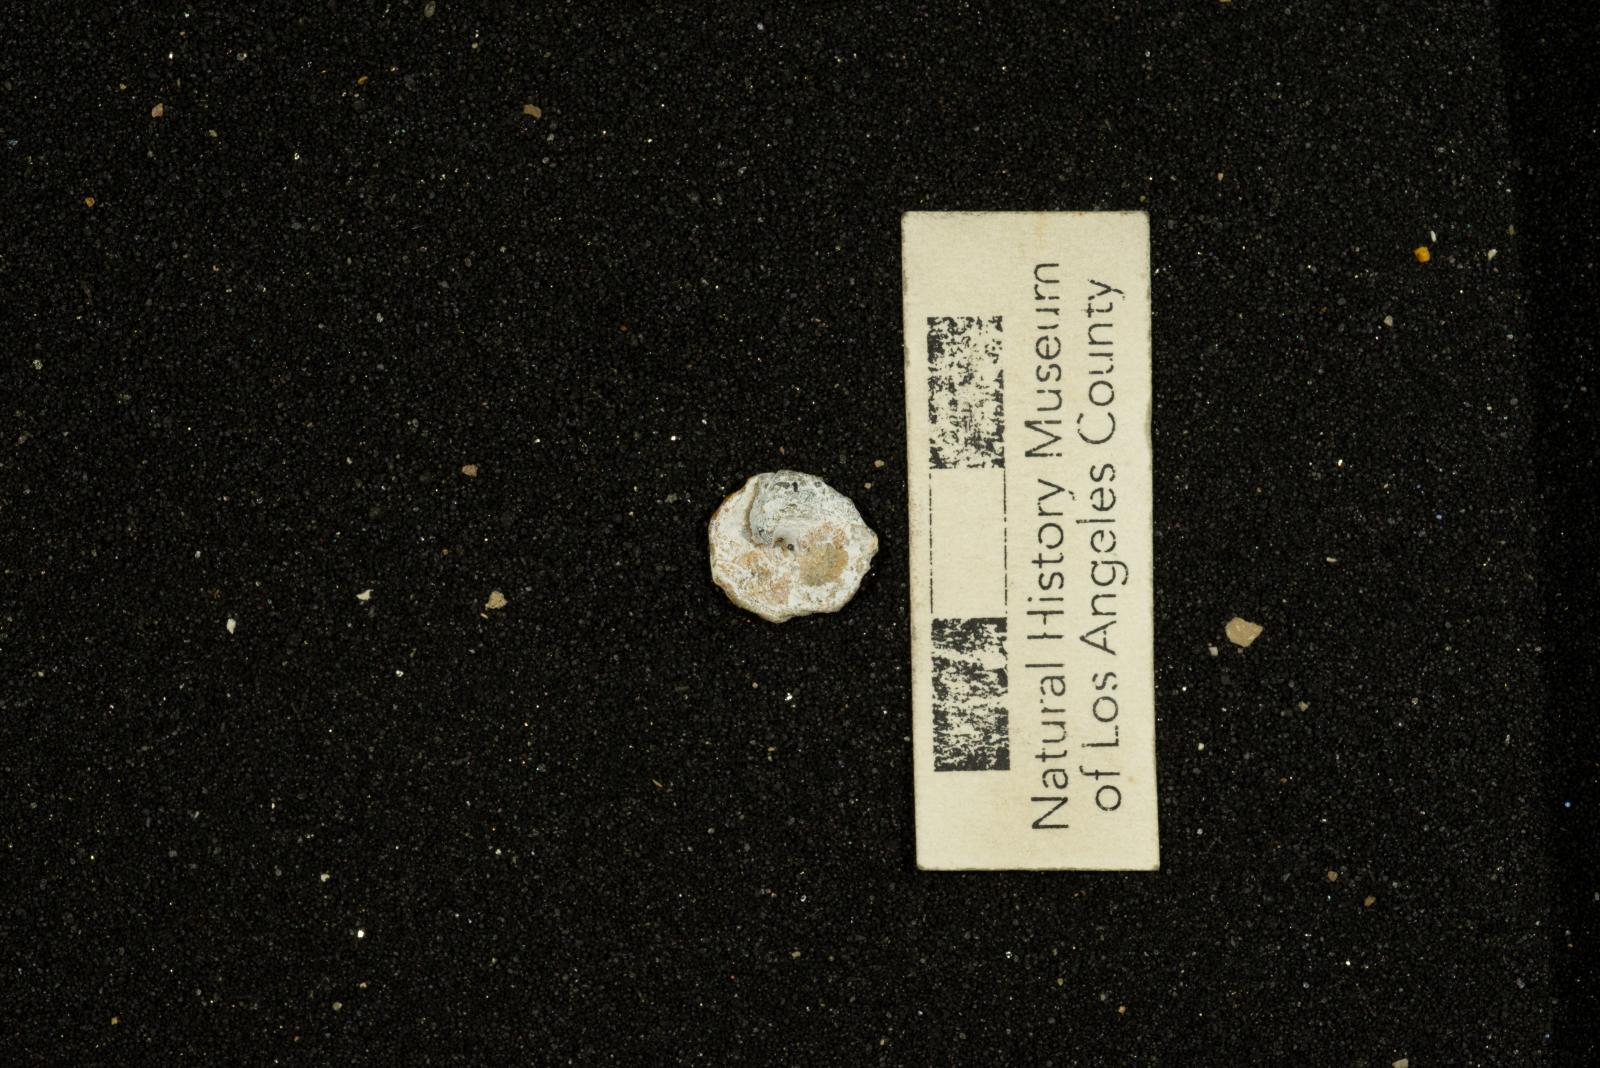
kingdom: Animalia
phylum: Mollusca
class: Gastropoda
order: Littorinimorpha
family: Xenophoridae
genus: Xenophora
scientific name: Xenophora hermax
